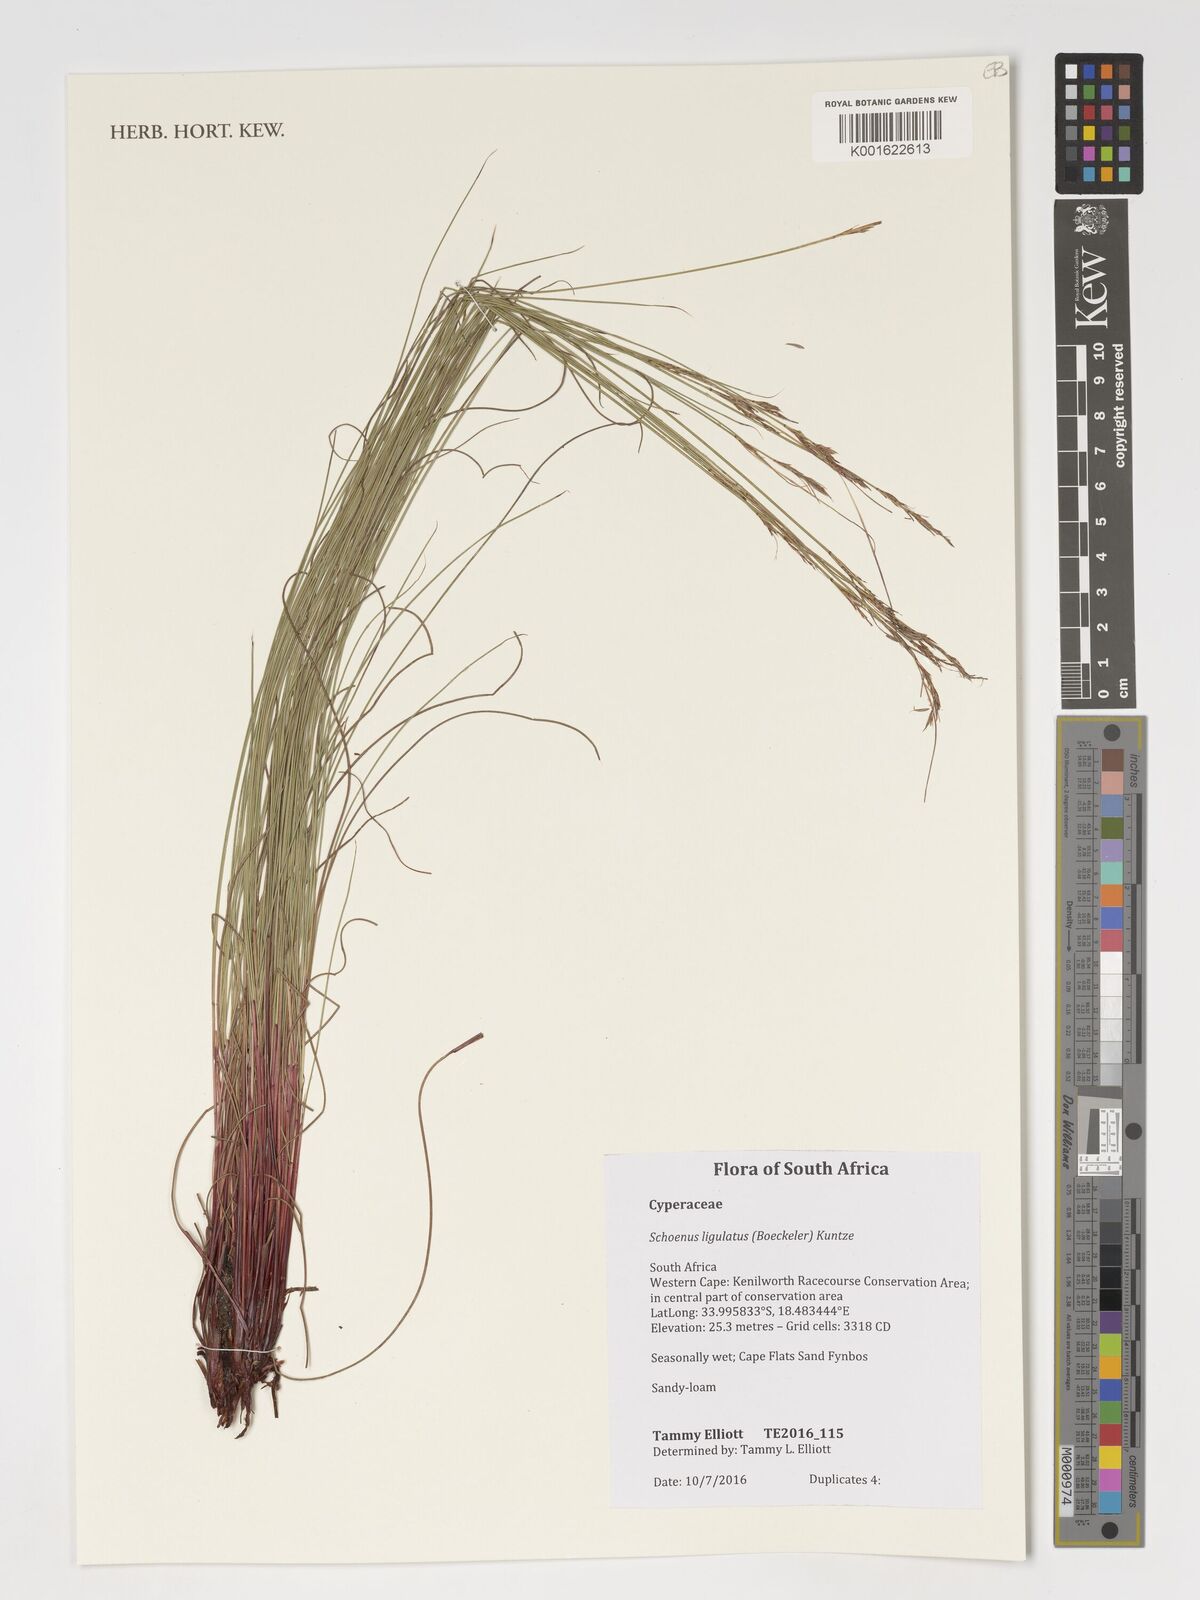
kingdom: Plantae
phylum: Tracheophyta
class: Liliopsida
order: Poales
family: Cyperaceae
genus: Schoenus
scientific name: Schoenus ligulatus
